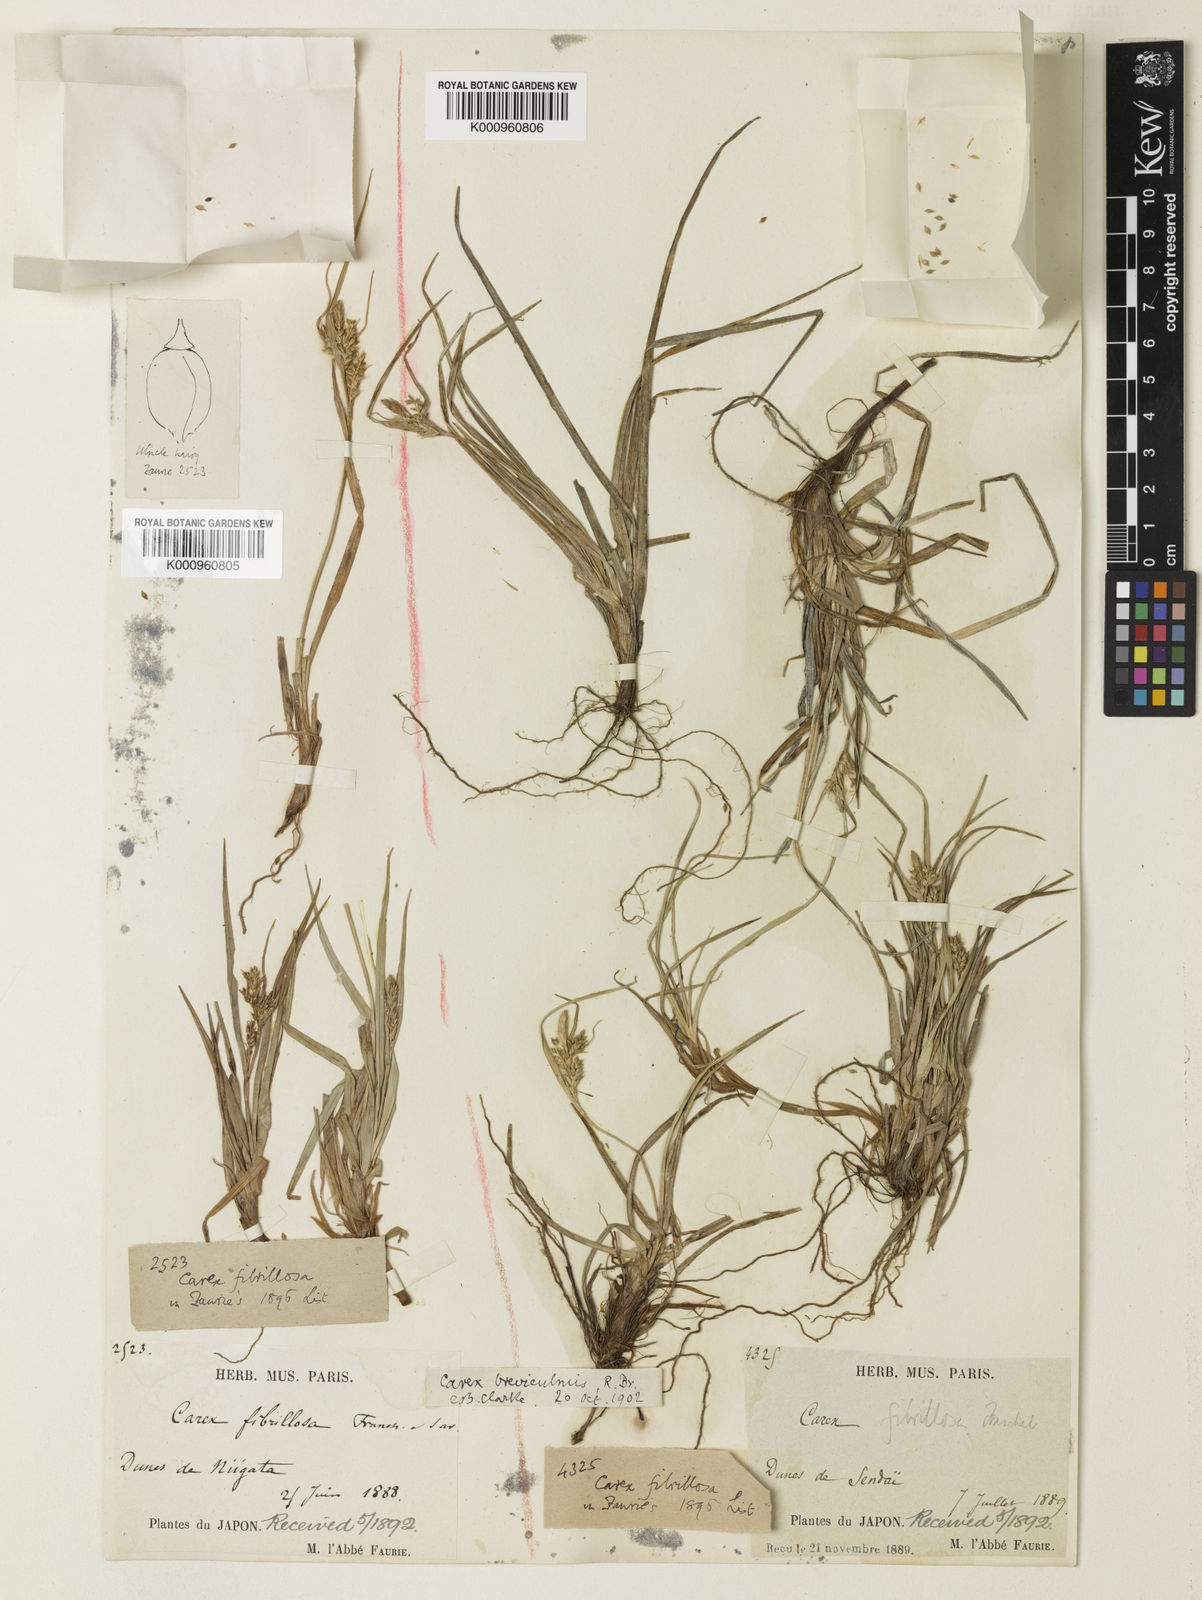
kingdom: Plantae
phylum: Tracheophyta
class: Liliopsida
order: Poales
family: Cyperaceae
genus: Carex
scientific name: Carex breviculmis
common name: Asian shortstem sedge
